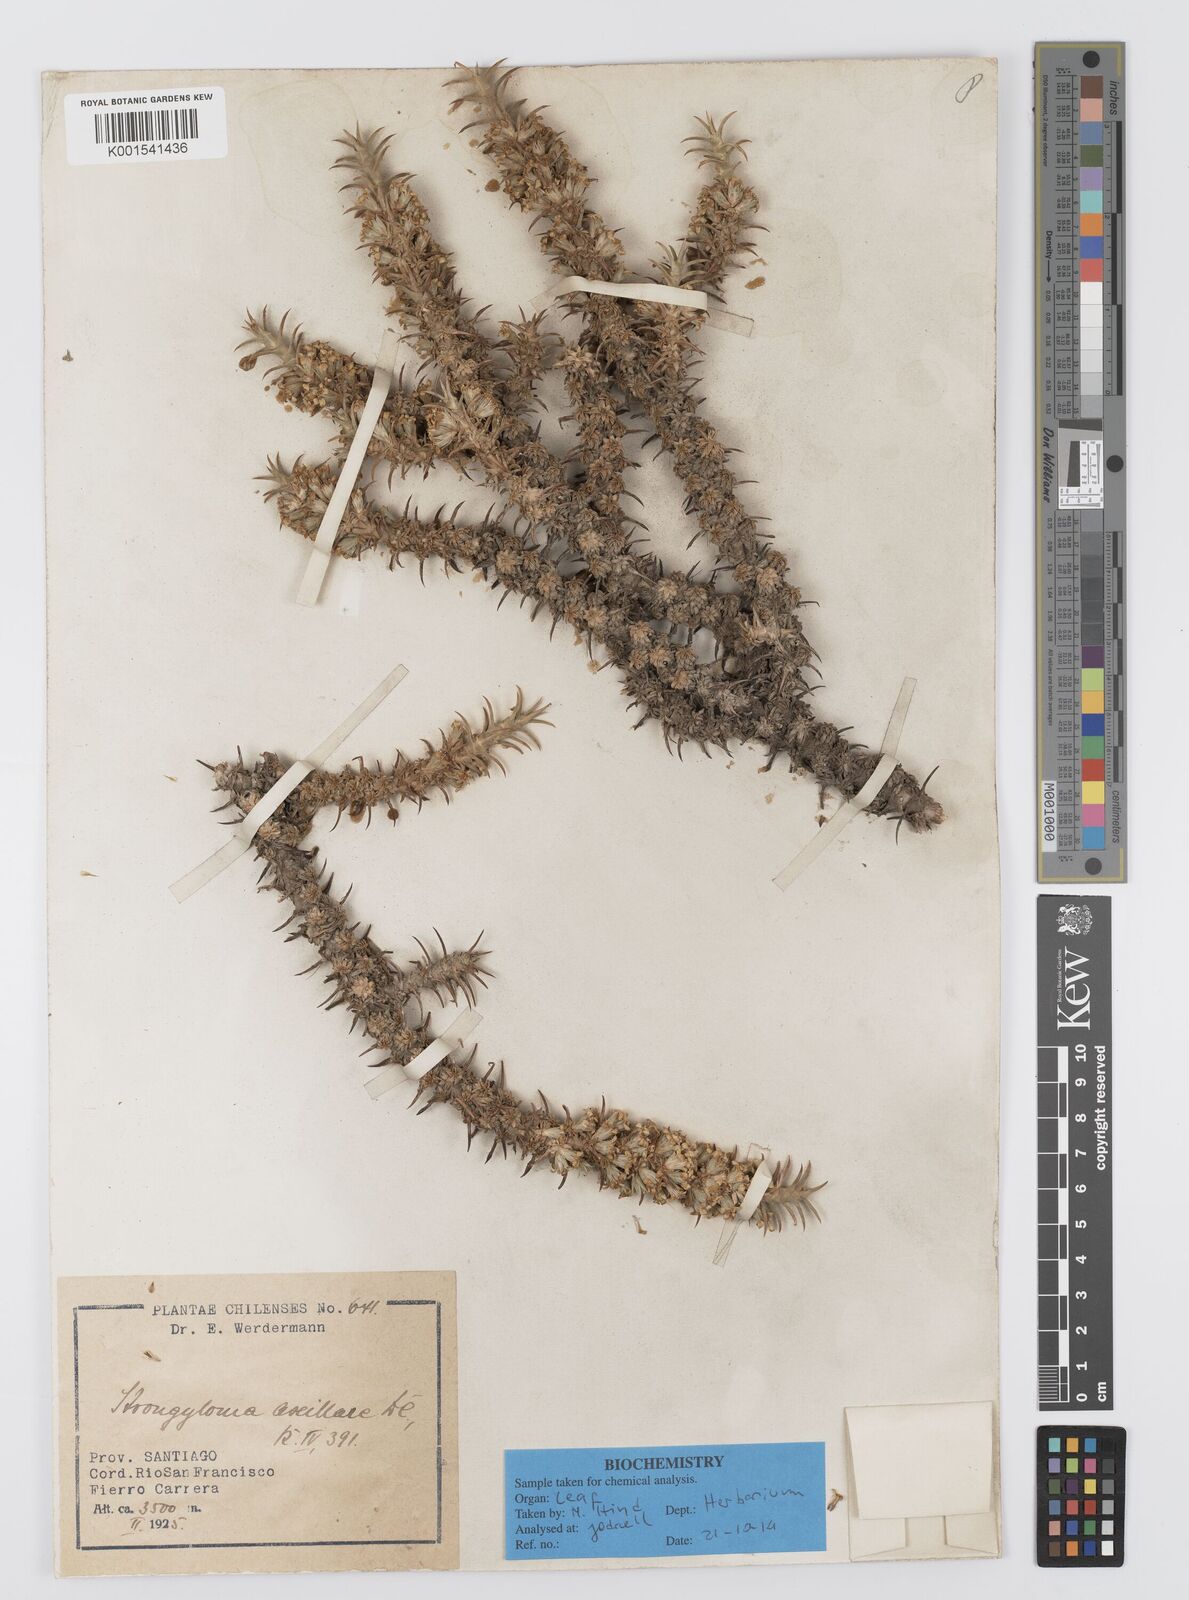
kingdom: Plantae
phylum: Tracheophyta
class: Magnoliopsida
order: Asterales
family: Asteraceae
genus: Nassauvia
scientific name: Nassauvia axillaris
